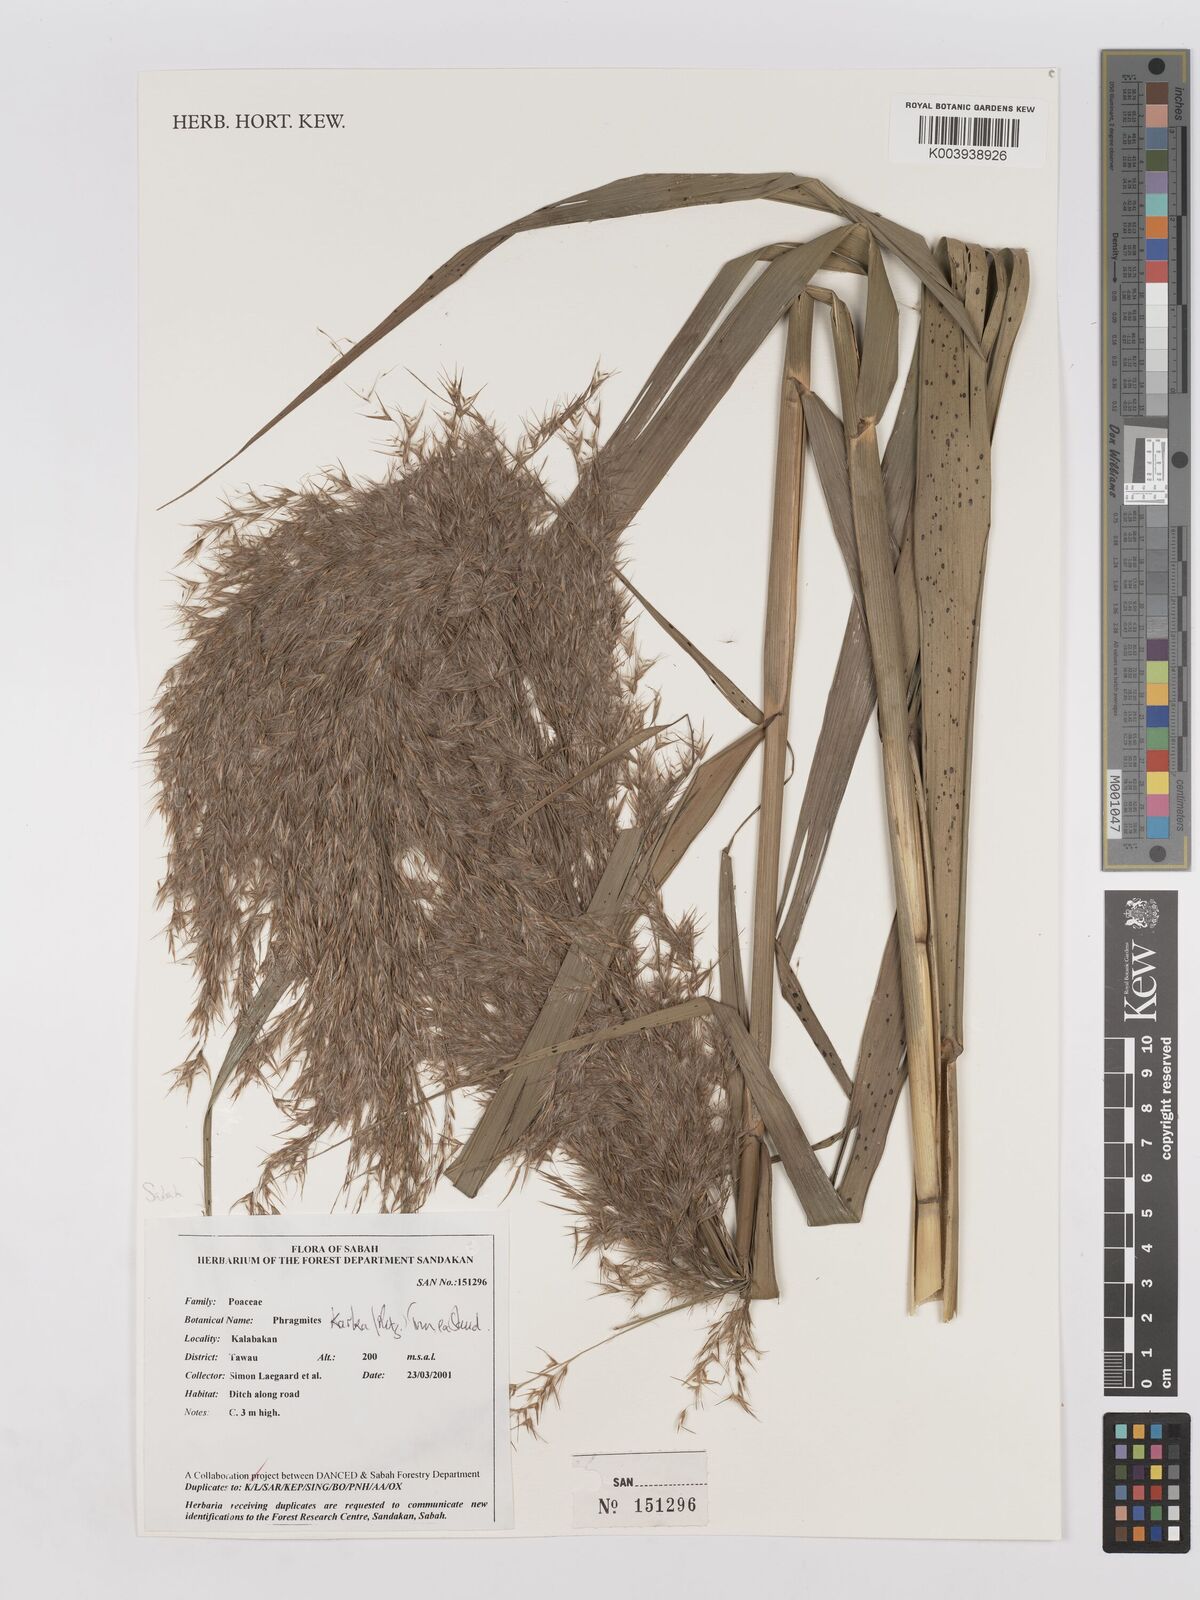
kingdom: Plantae
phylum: Tracheophyta
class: Liliopsida
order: Poales
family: Poaceae
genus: Phragmites
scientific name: Phragmites karka
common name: Tropical reed
